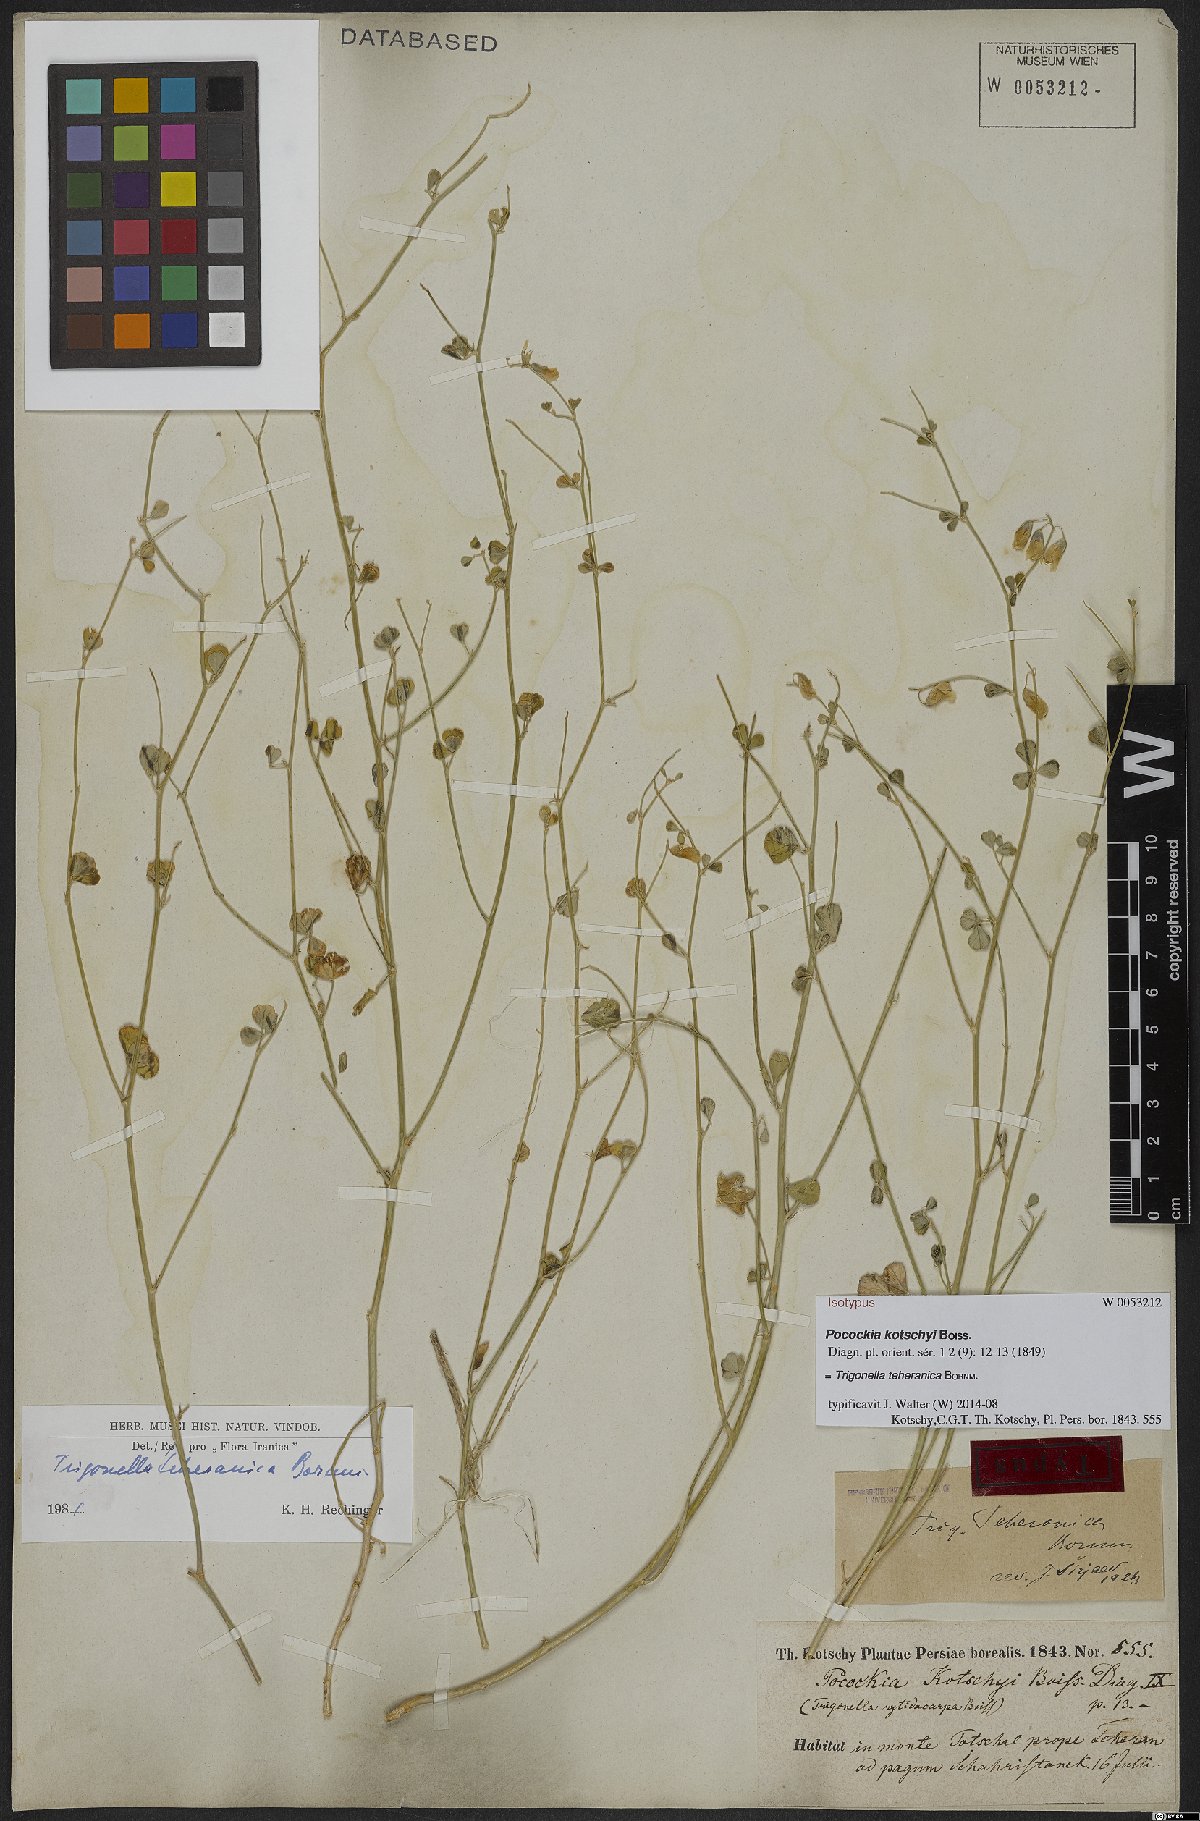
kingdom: Plantae
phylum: Tracheophyta
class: Magnoliopsida
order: Fabales
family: Fabaceae
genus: Trigonella
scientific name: Trigonella teheranica
